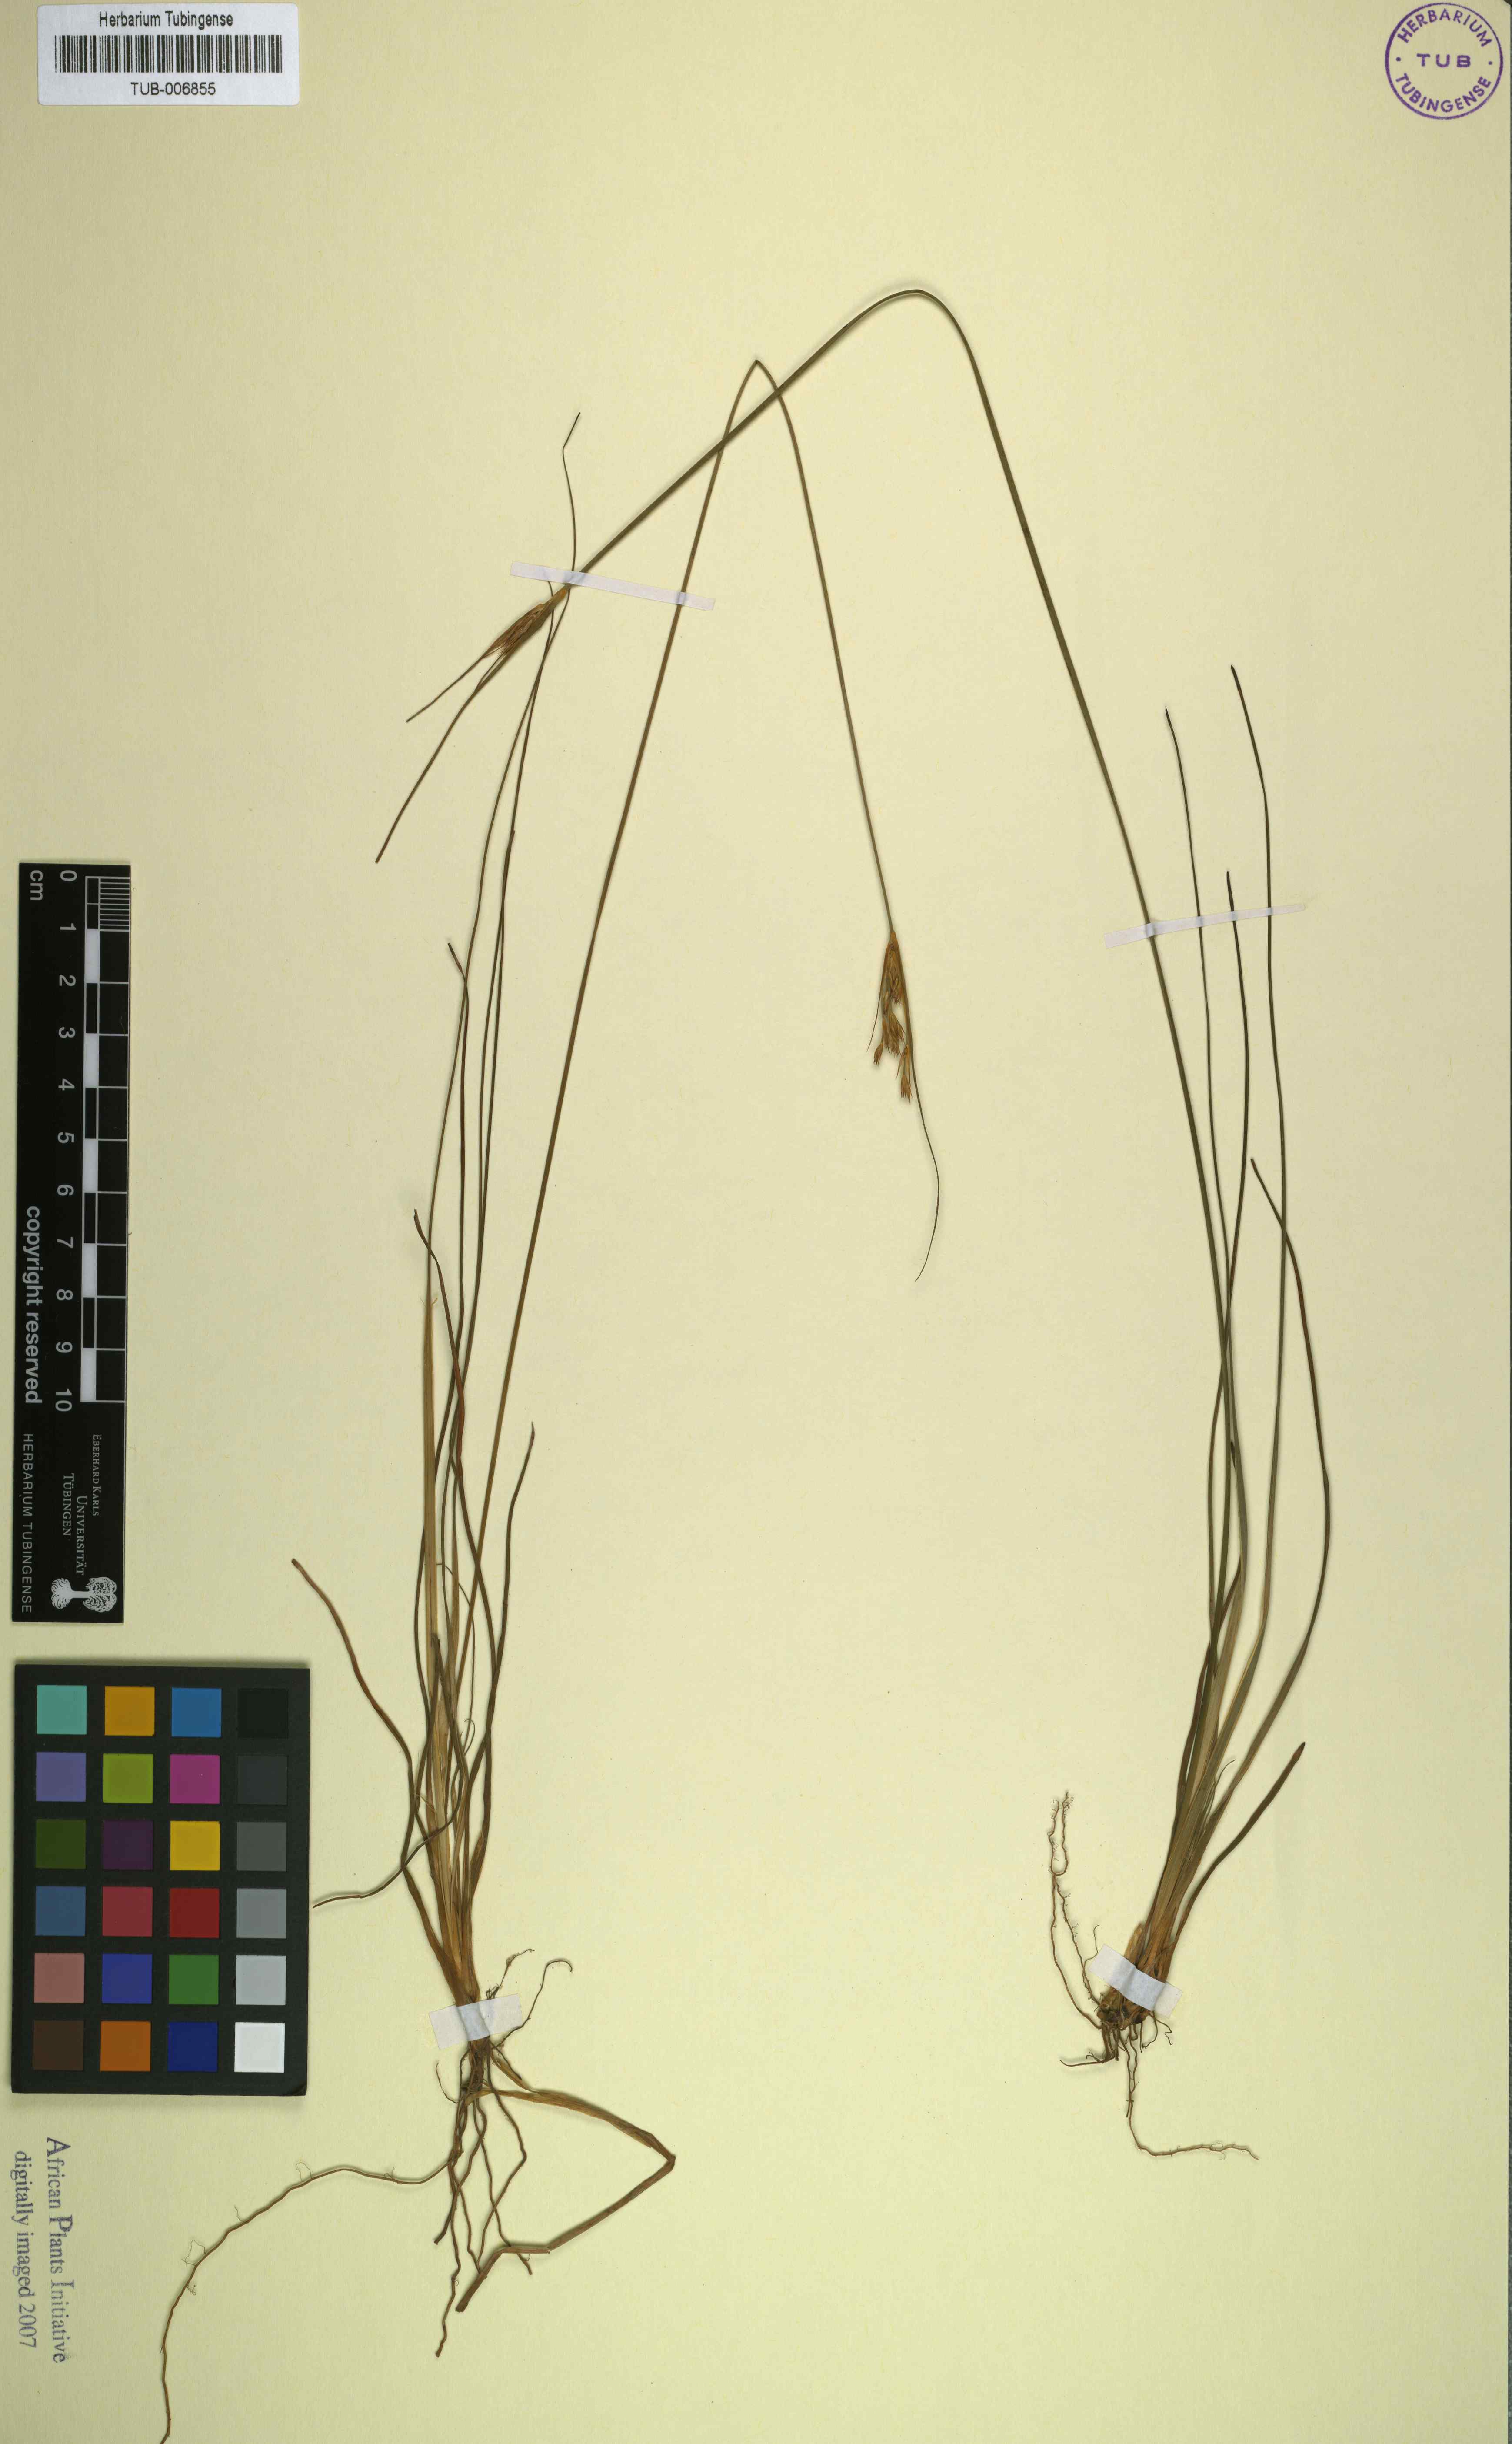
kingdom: Plantae
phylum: Tracheophyta
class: Liliopsida
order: Poales
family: Juncaceae
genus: Juncus
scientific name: Juncus capensis
